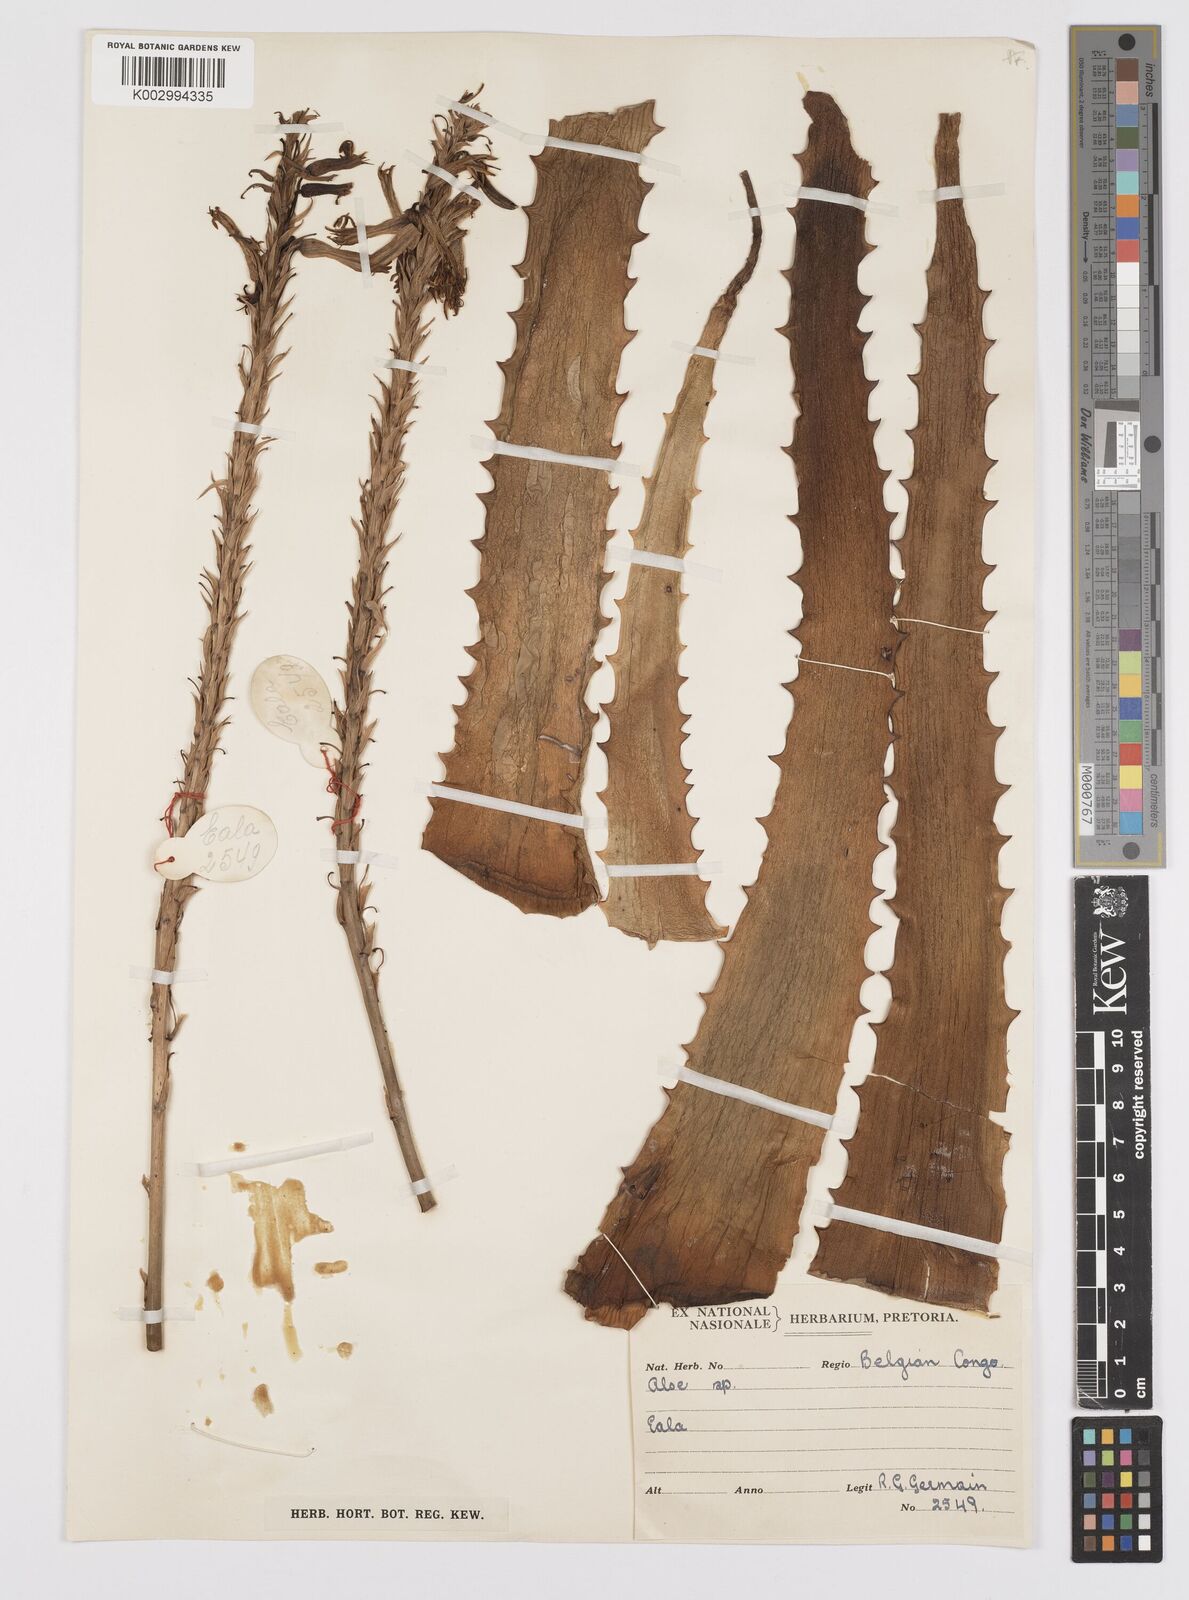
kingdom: Plantae
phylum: Tracheophyta
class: Liliopsida
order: Asparagales
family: Asphodelaceae
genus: Aloe
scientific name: Aloe seretii
